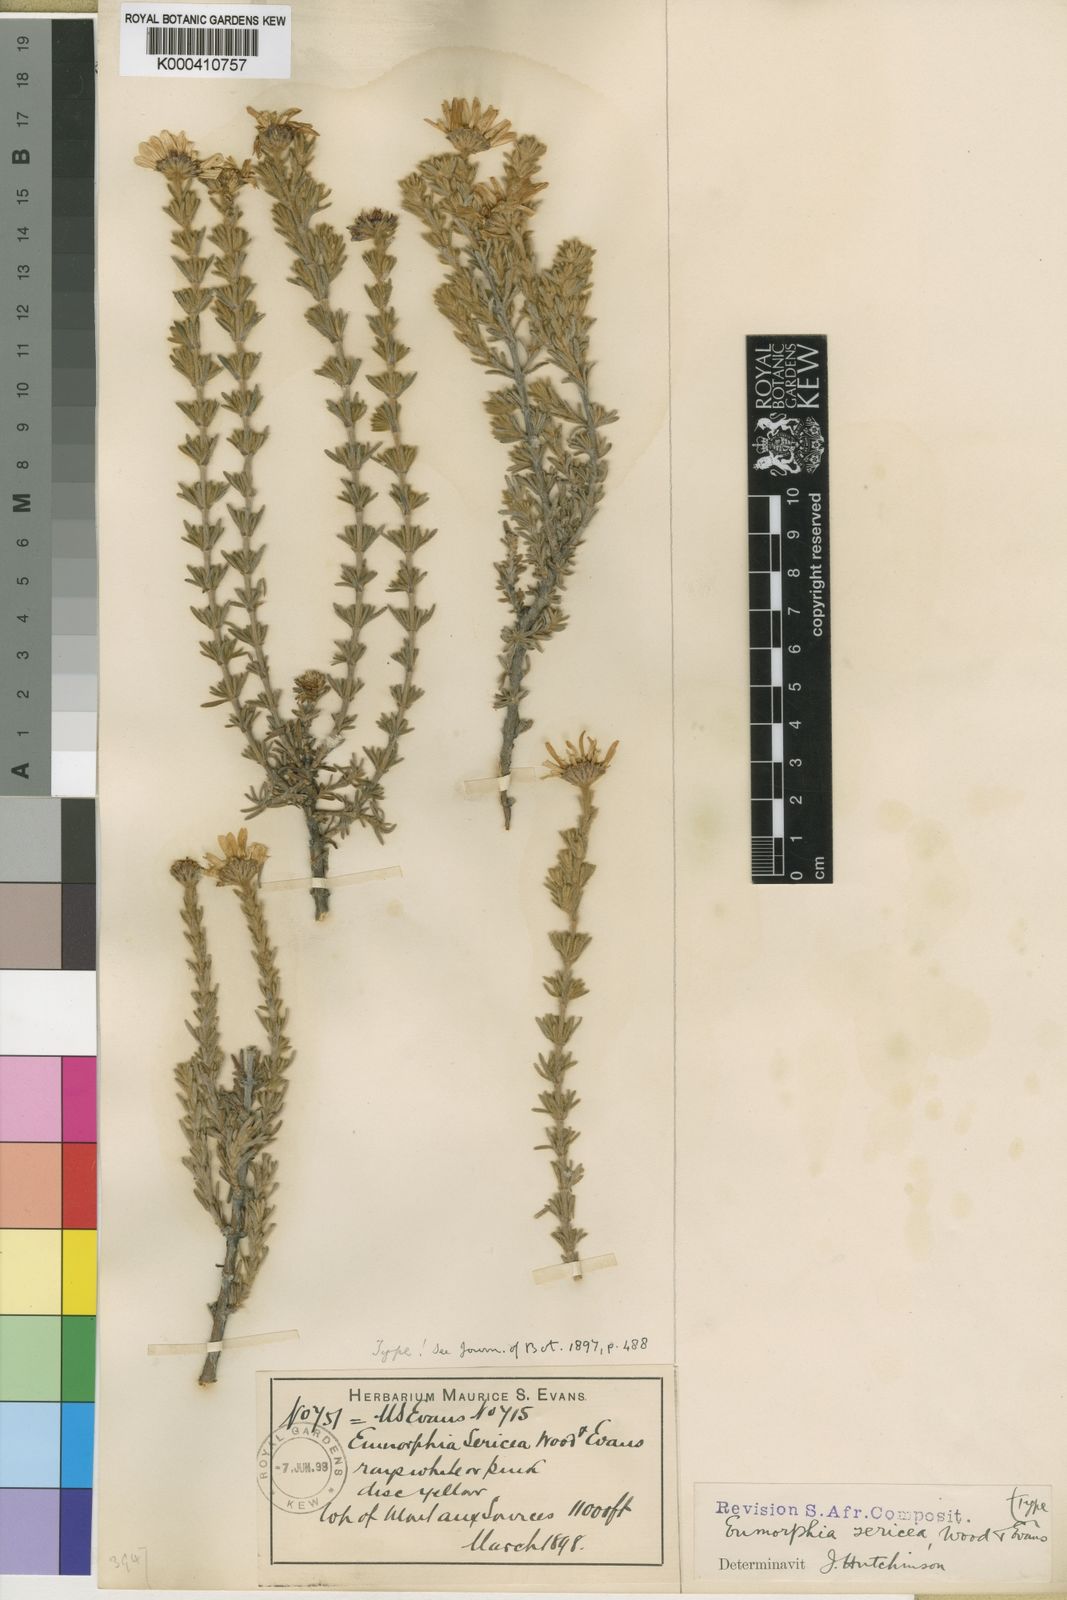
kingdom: Plantae
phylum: Tracheophyta
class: Magnoliopsida
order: Asterales
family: Asteraceae
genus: Eumorphia
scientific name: Eumorphia sericea
